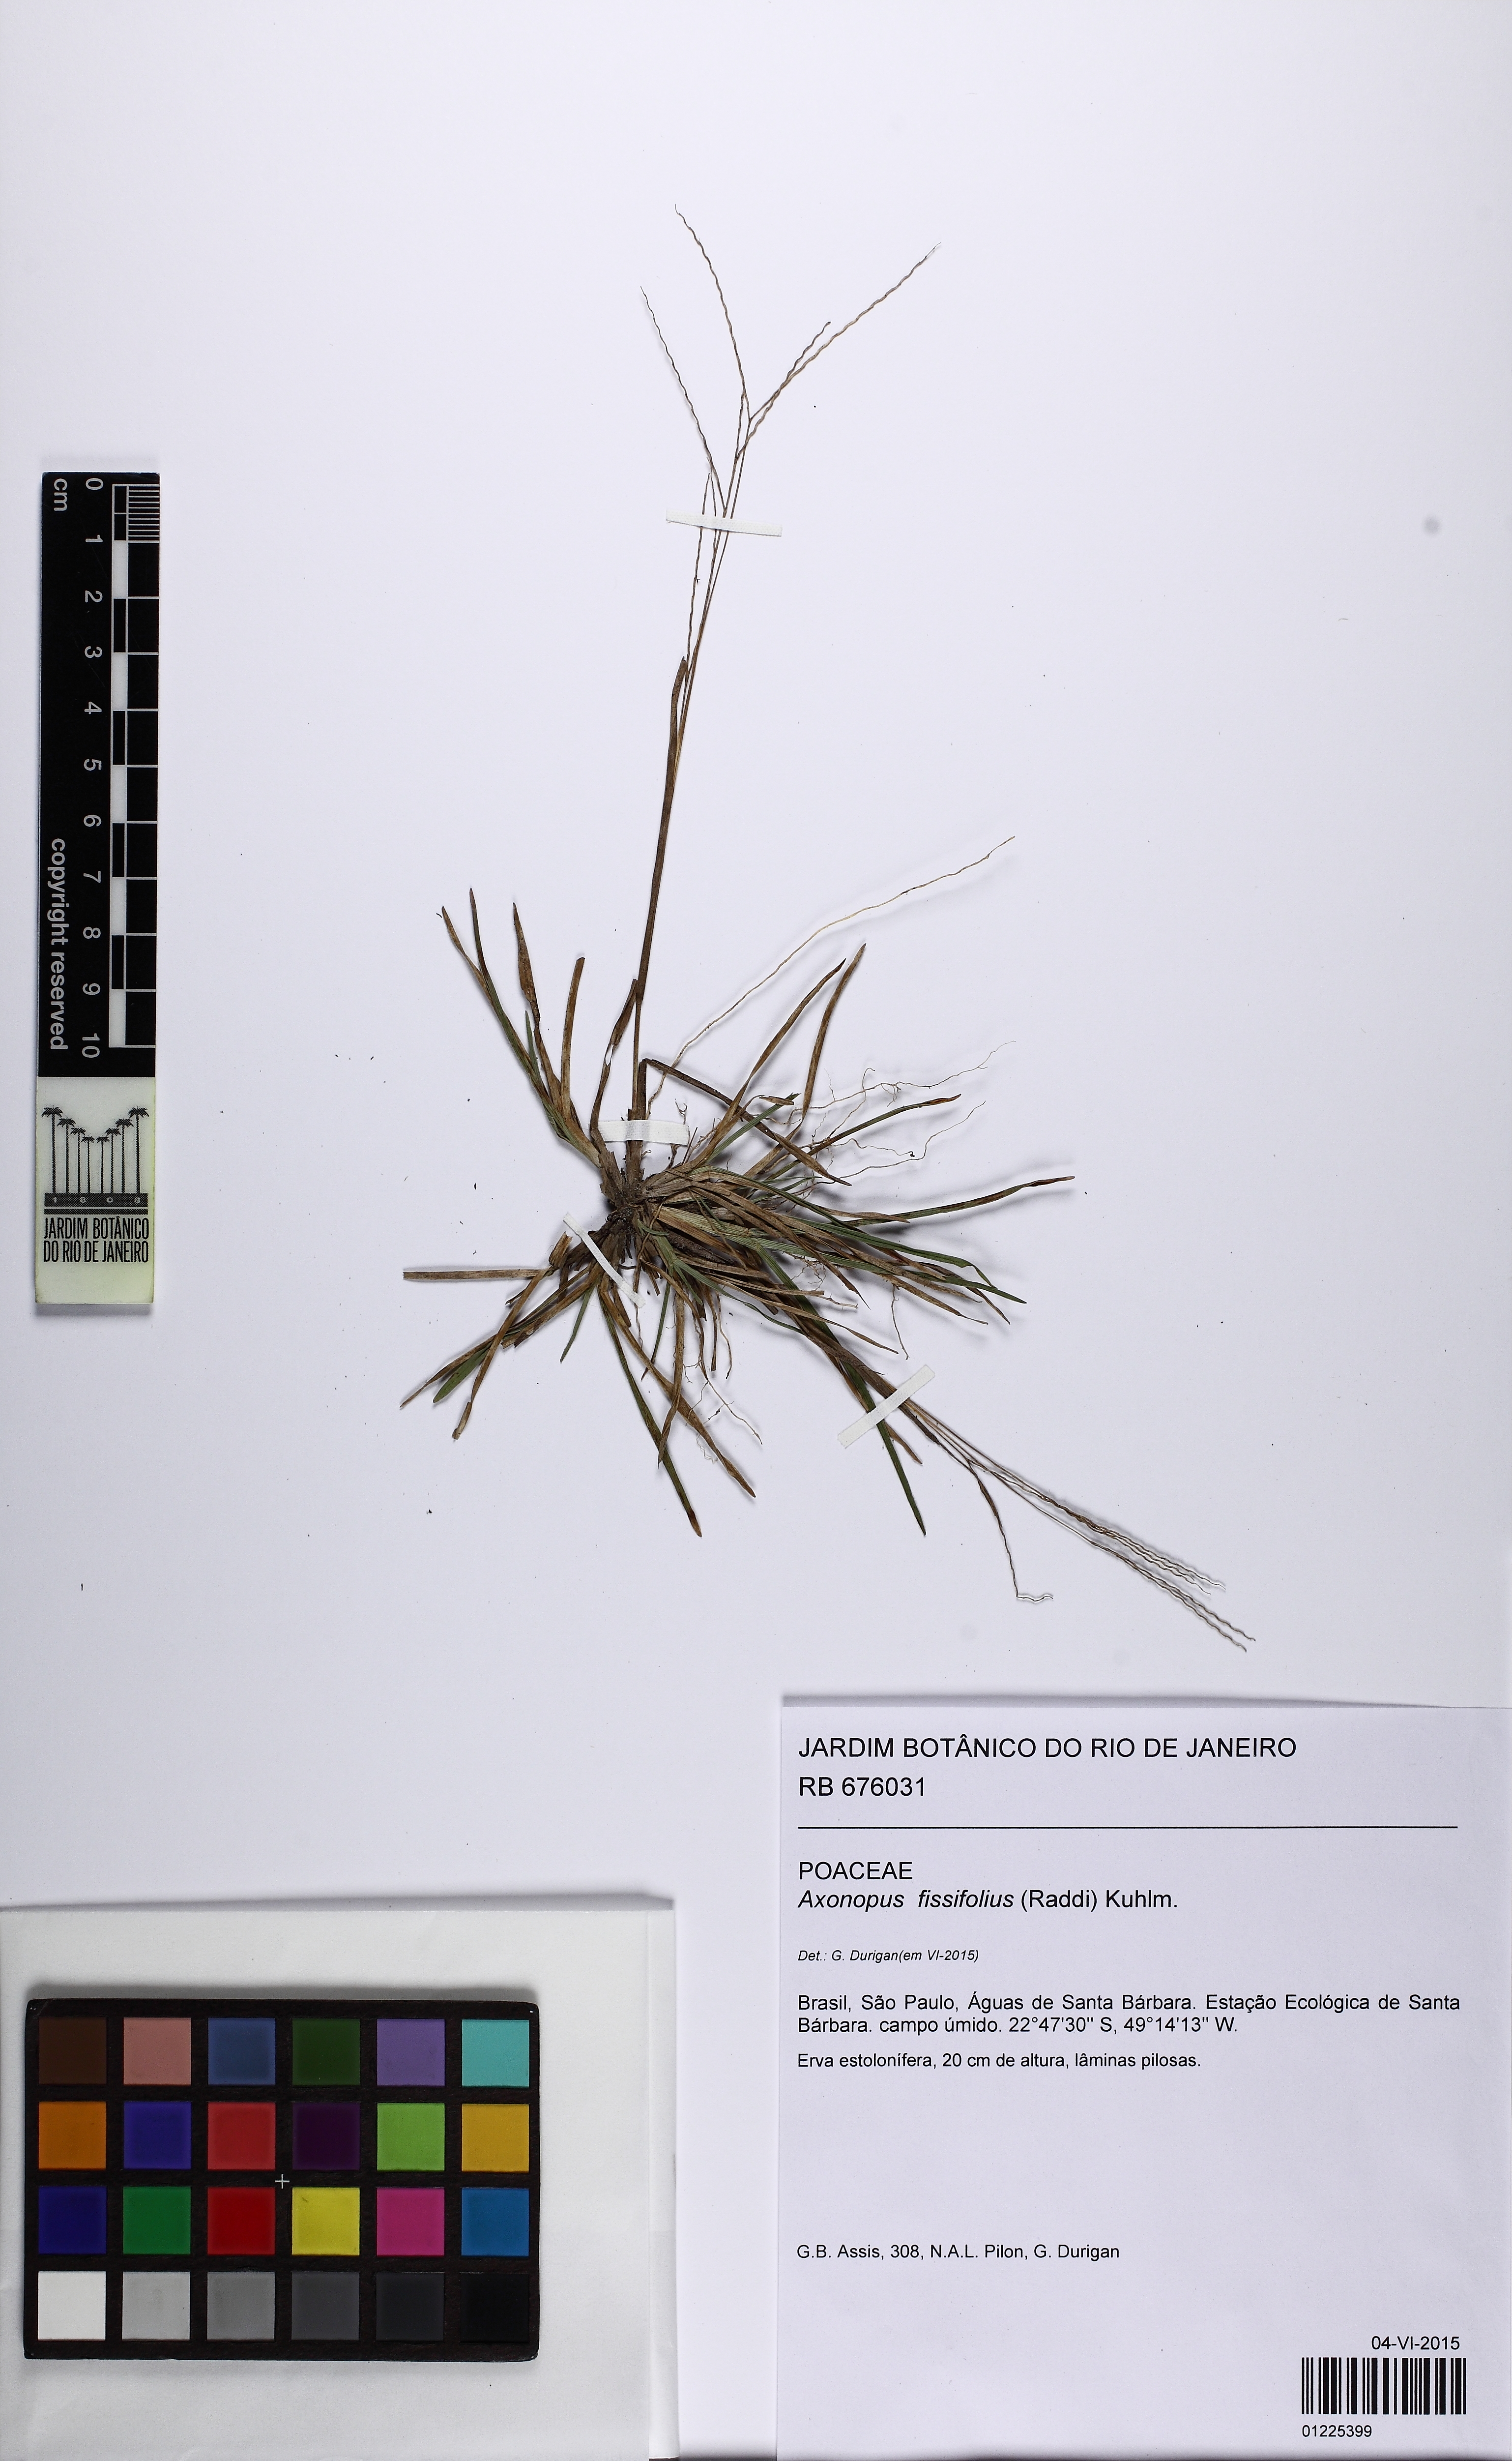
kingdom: Plantae
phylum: Tracheophyta
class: Liliopsida
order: Poales
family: Poaceae
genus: Axonopus
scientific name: Axonopus fissifolius
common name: Common carpetgrass
